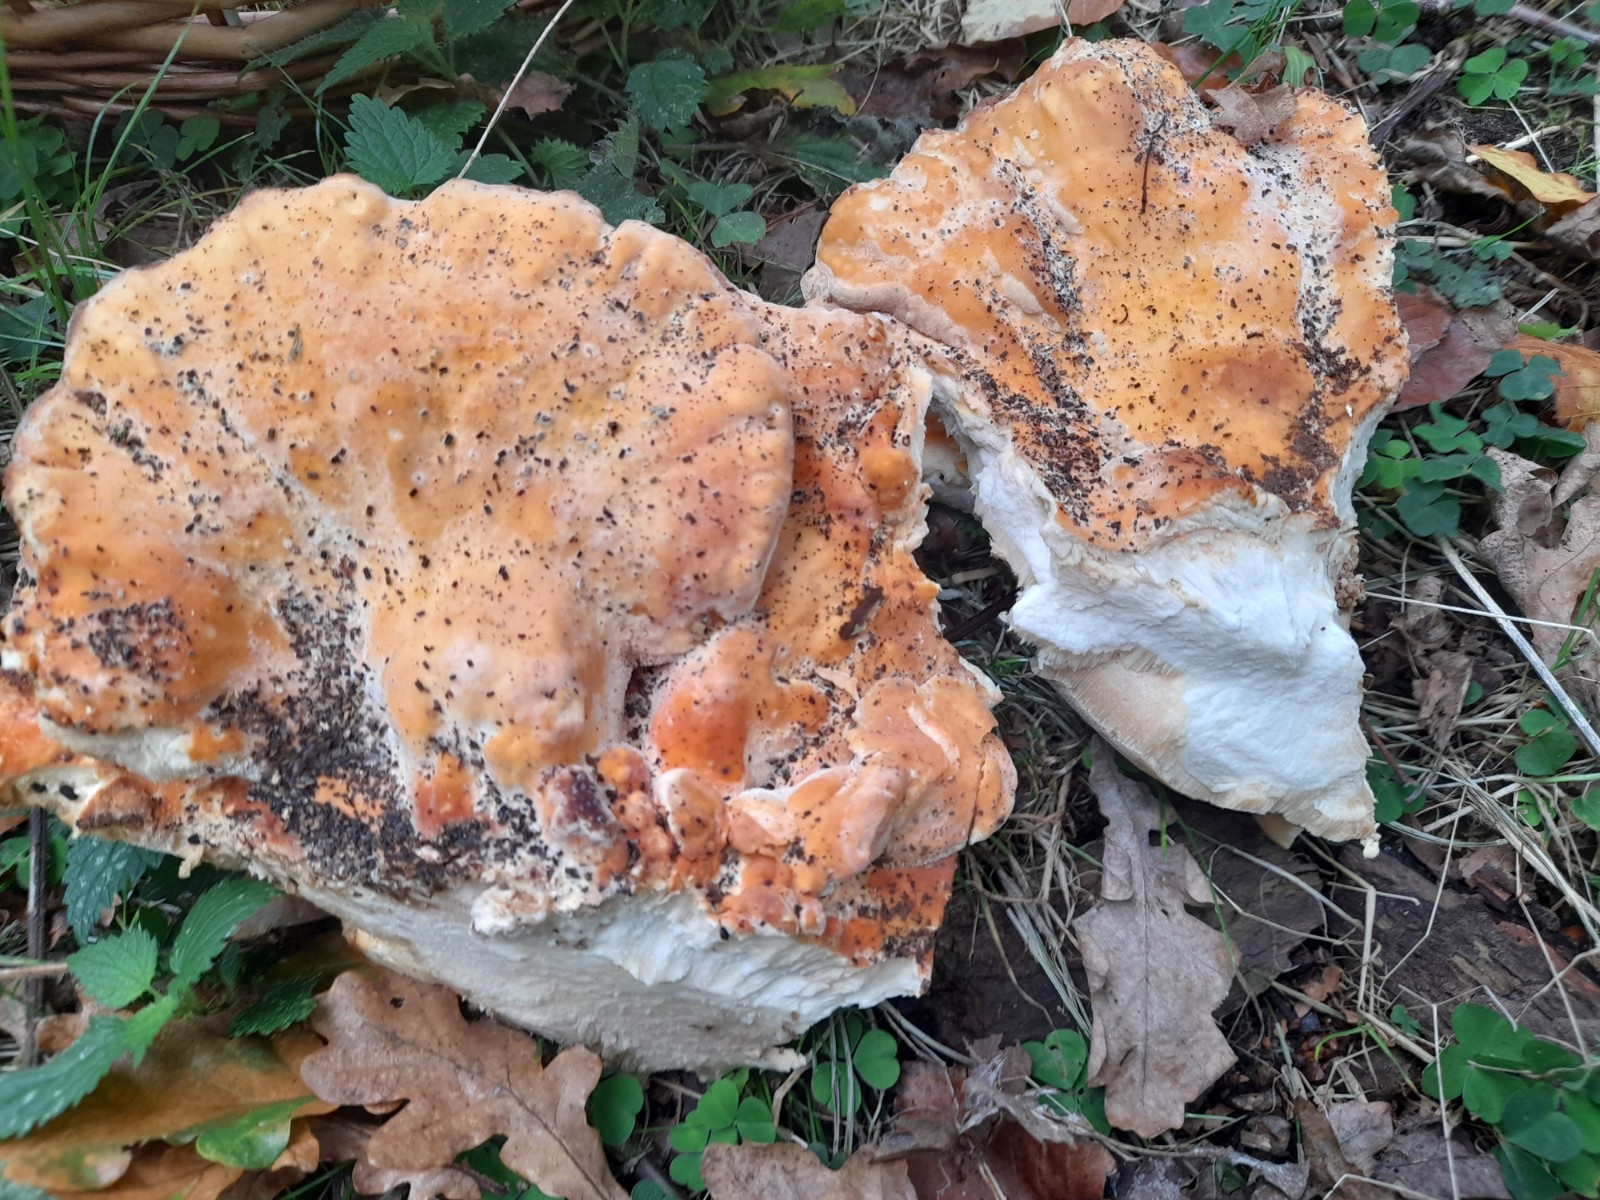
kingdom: Fungi
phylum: Basidiomycota
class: Agaricomycetes
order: Polyporales
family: Laetiporaceae
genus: Laetiporus
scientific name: Laetiporus sulphureus
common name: svovlporesvamp
